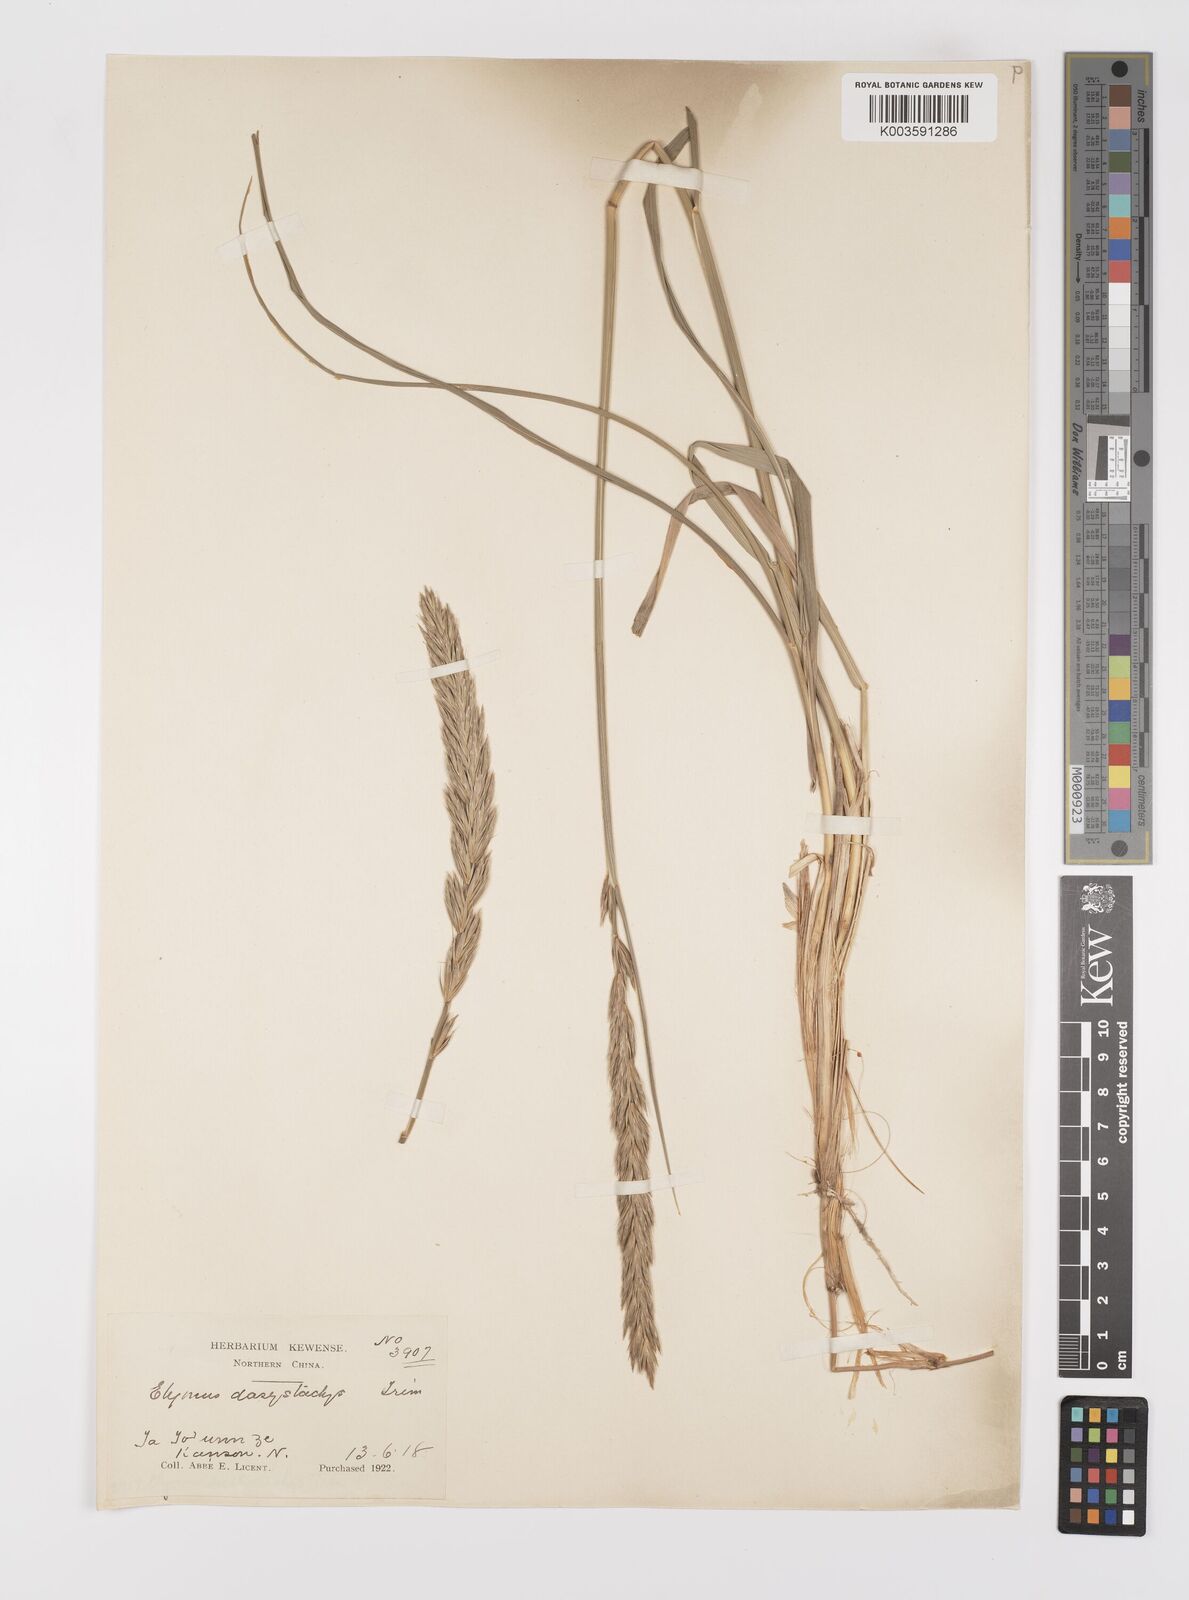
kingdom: Plantae
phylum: Tracheophyta
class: Liliopsida
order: Poales
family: Poaceae
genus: Leymus
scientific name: Leymus secalinus
